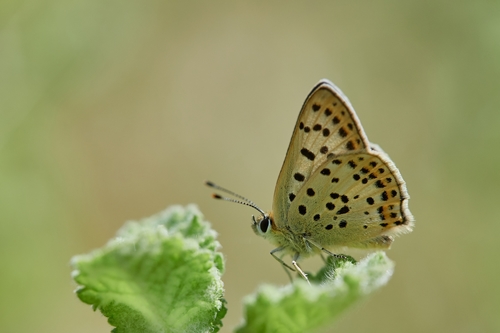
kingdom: Animalia
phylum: Arthropoda
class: Insecta
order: Lepidoptera
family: Lycaenidae
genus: Loweia
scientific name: Loweia tityrus
